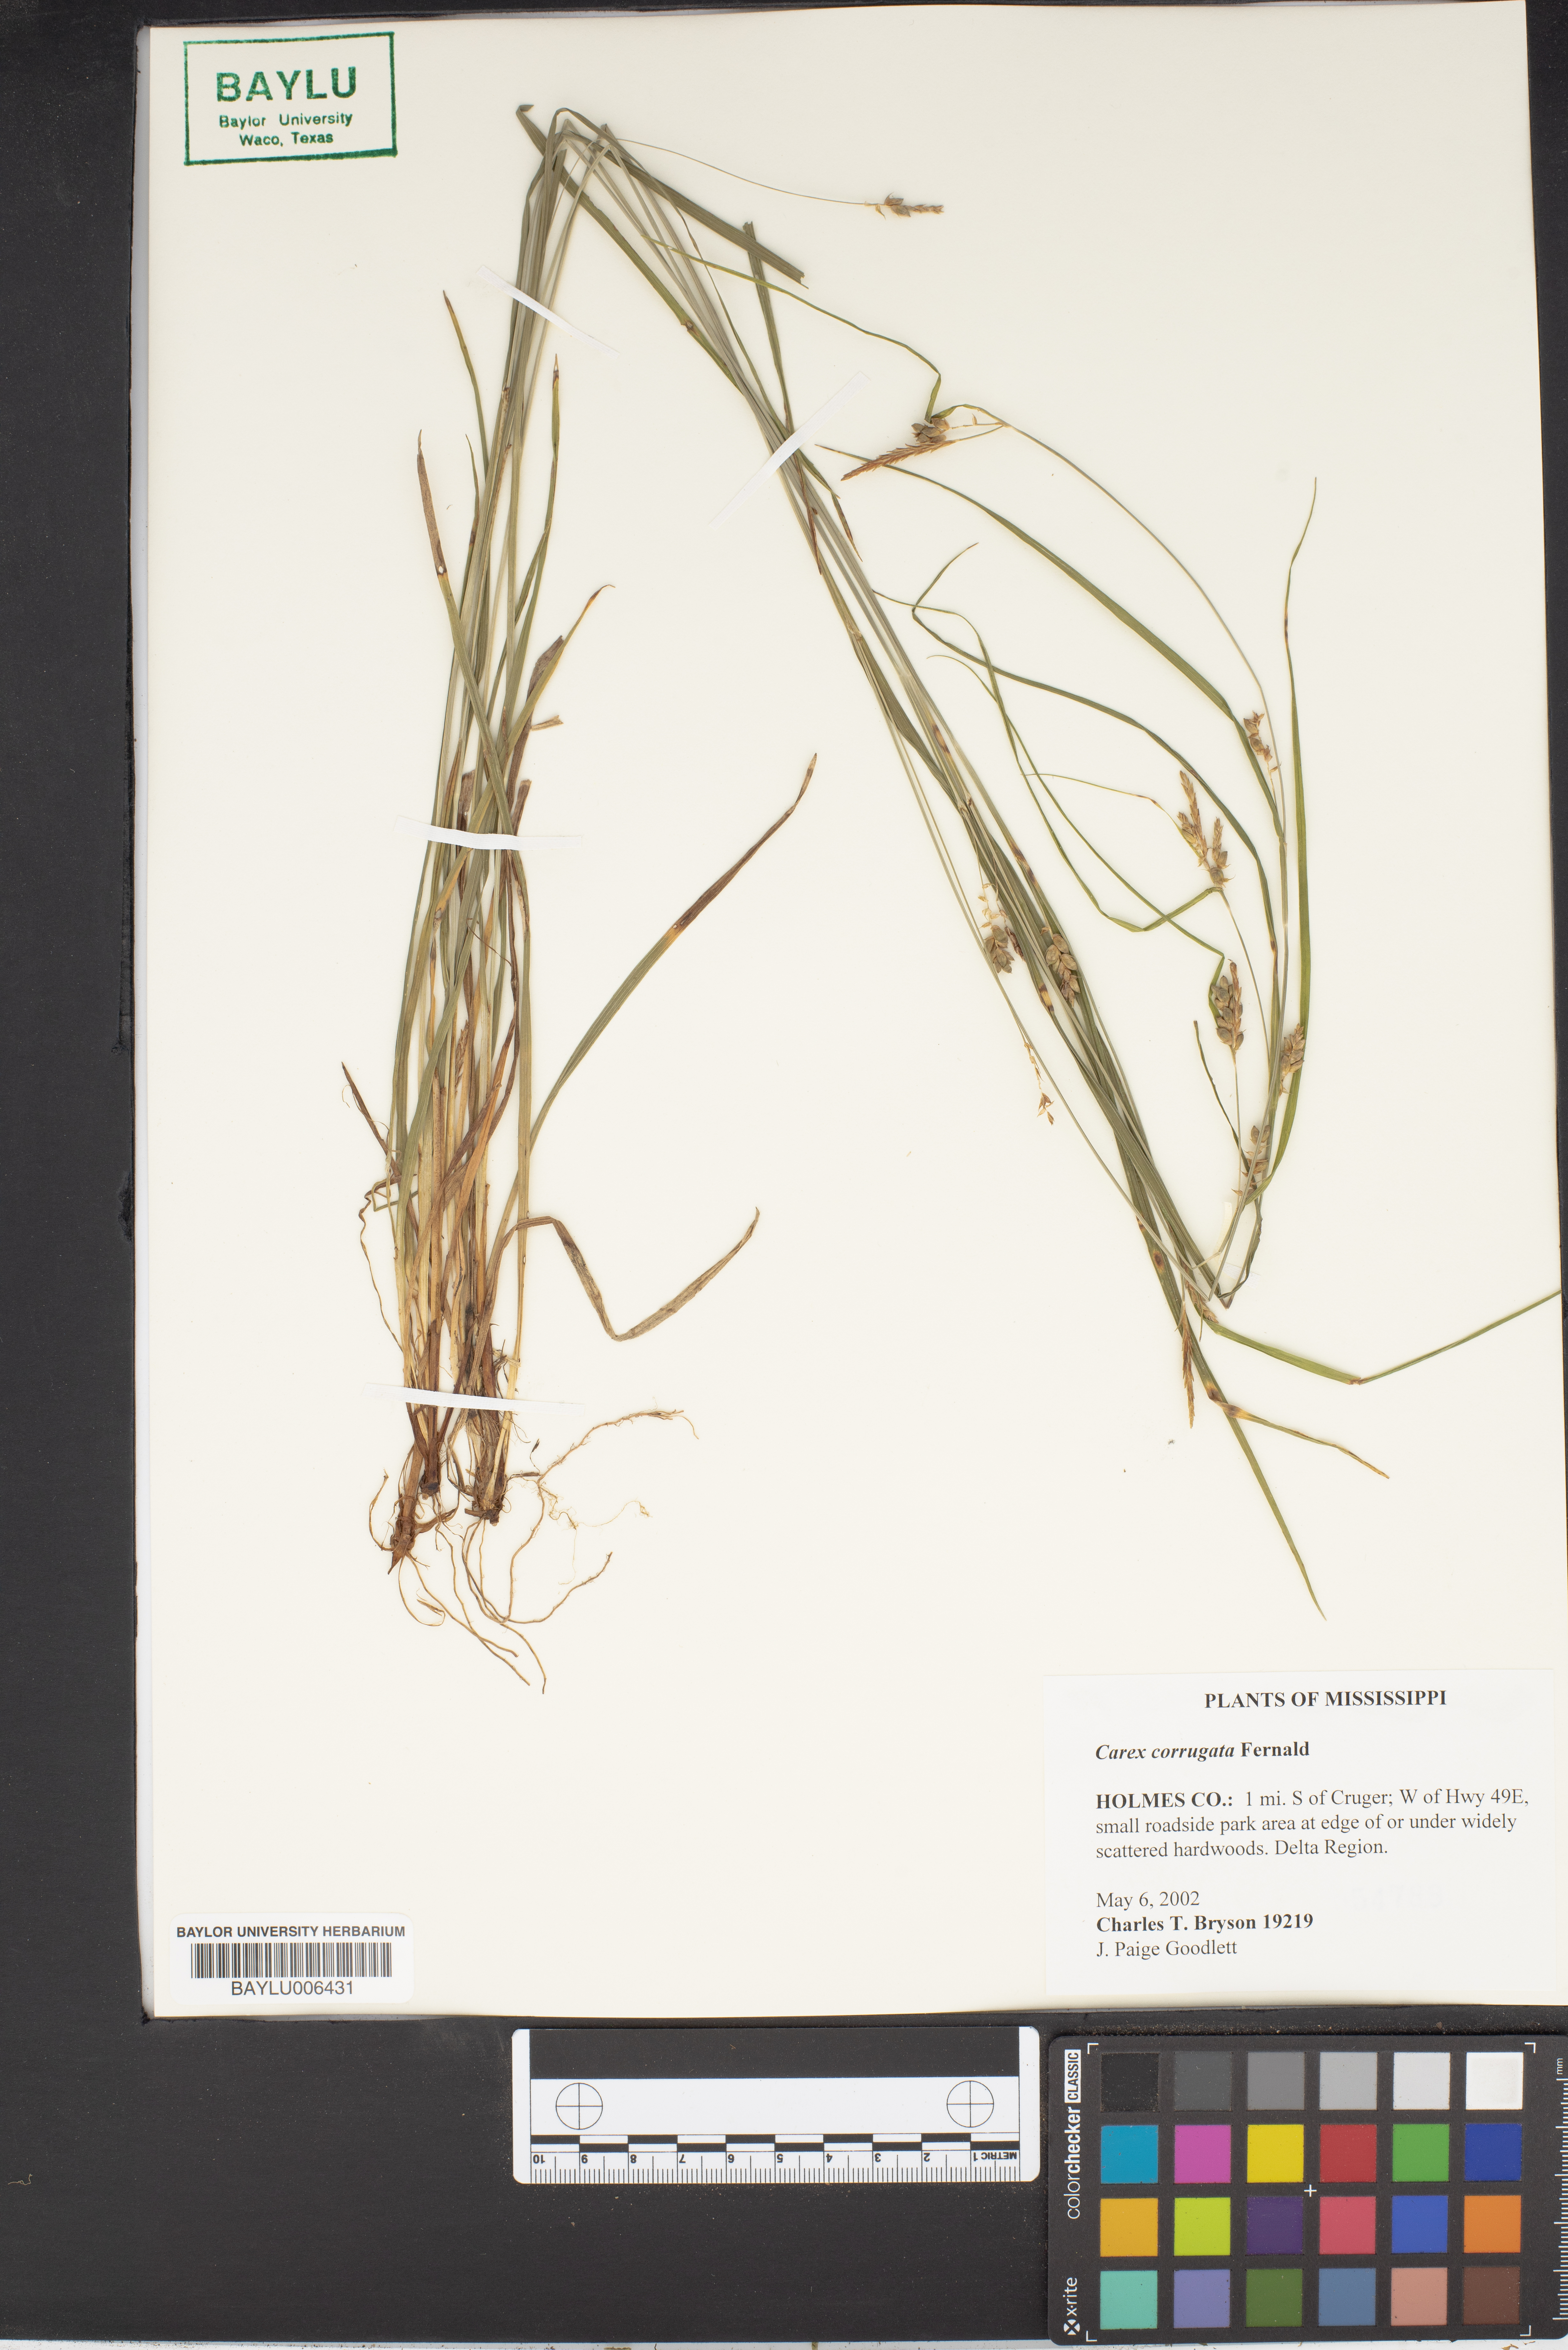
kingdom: Plantae
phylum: Tracheophyta
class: Liliopsida
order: Poales
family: Cyperaceae
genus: Carex
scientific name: Carex corrugata
